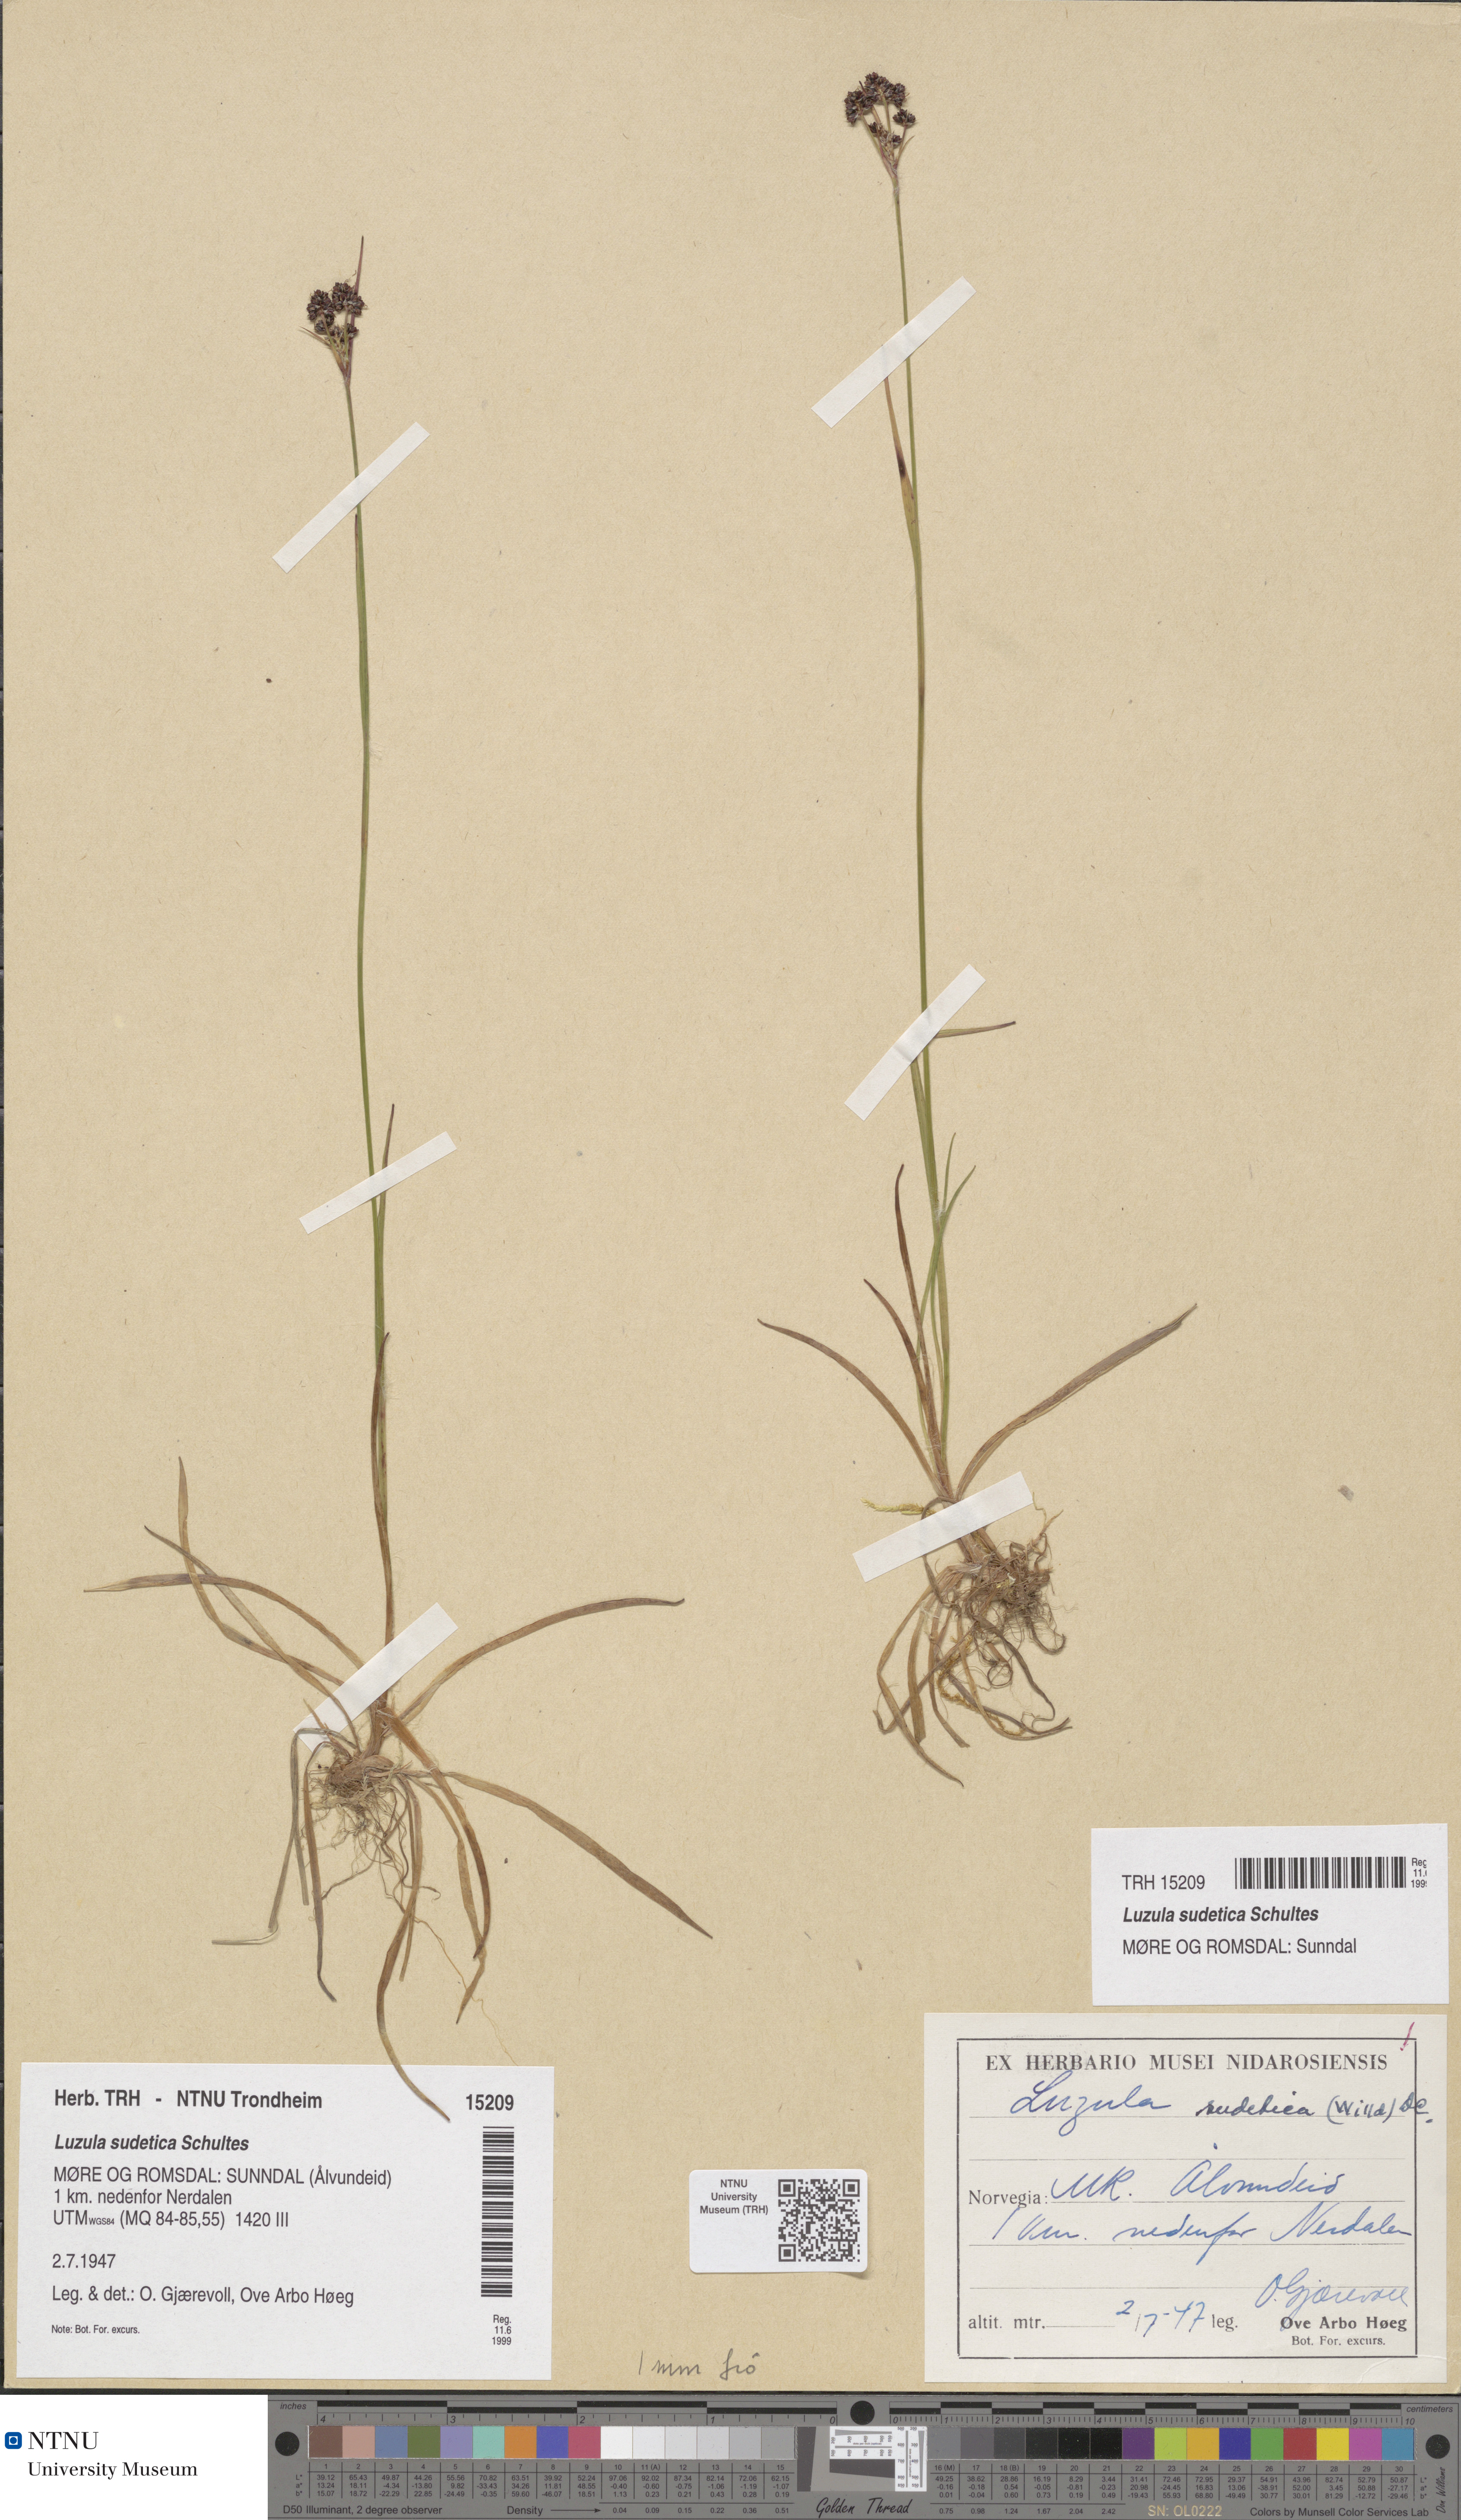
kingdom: Plantae
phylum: Tracheophyta
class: Liliopsida
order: Poales
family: Juncaceae
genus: Luzula
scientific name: Luzula sudetica
